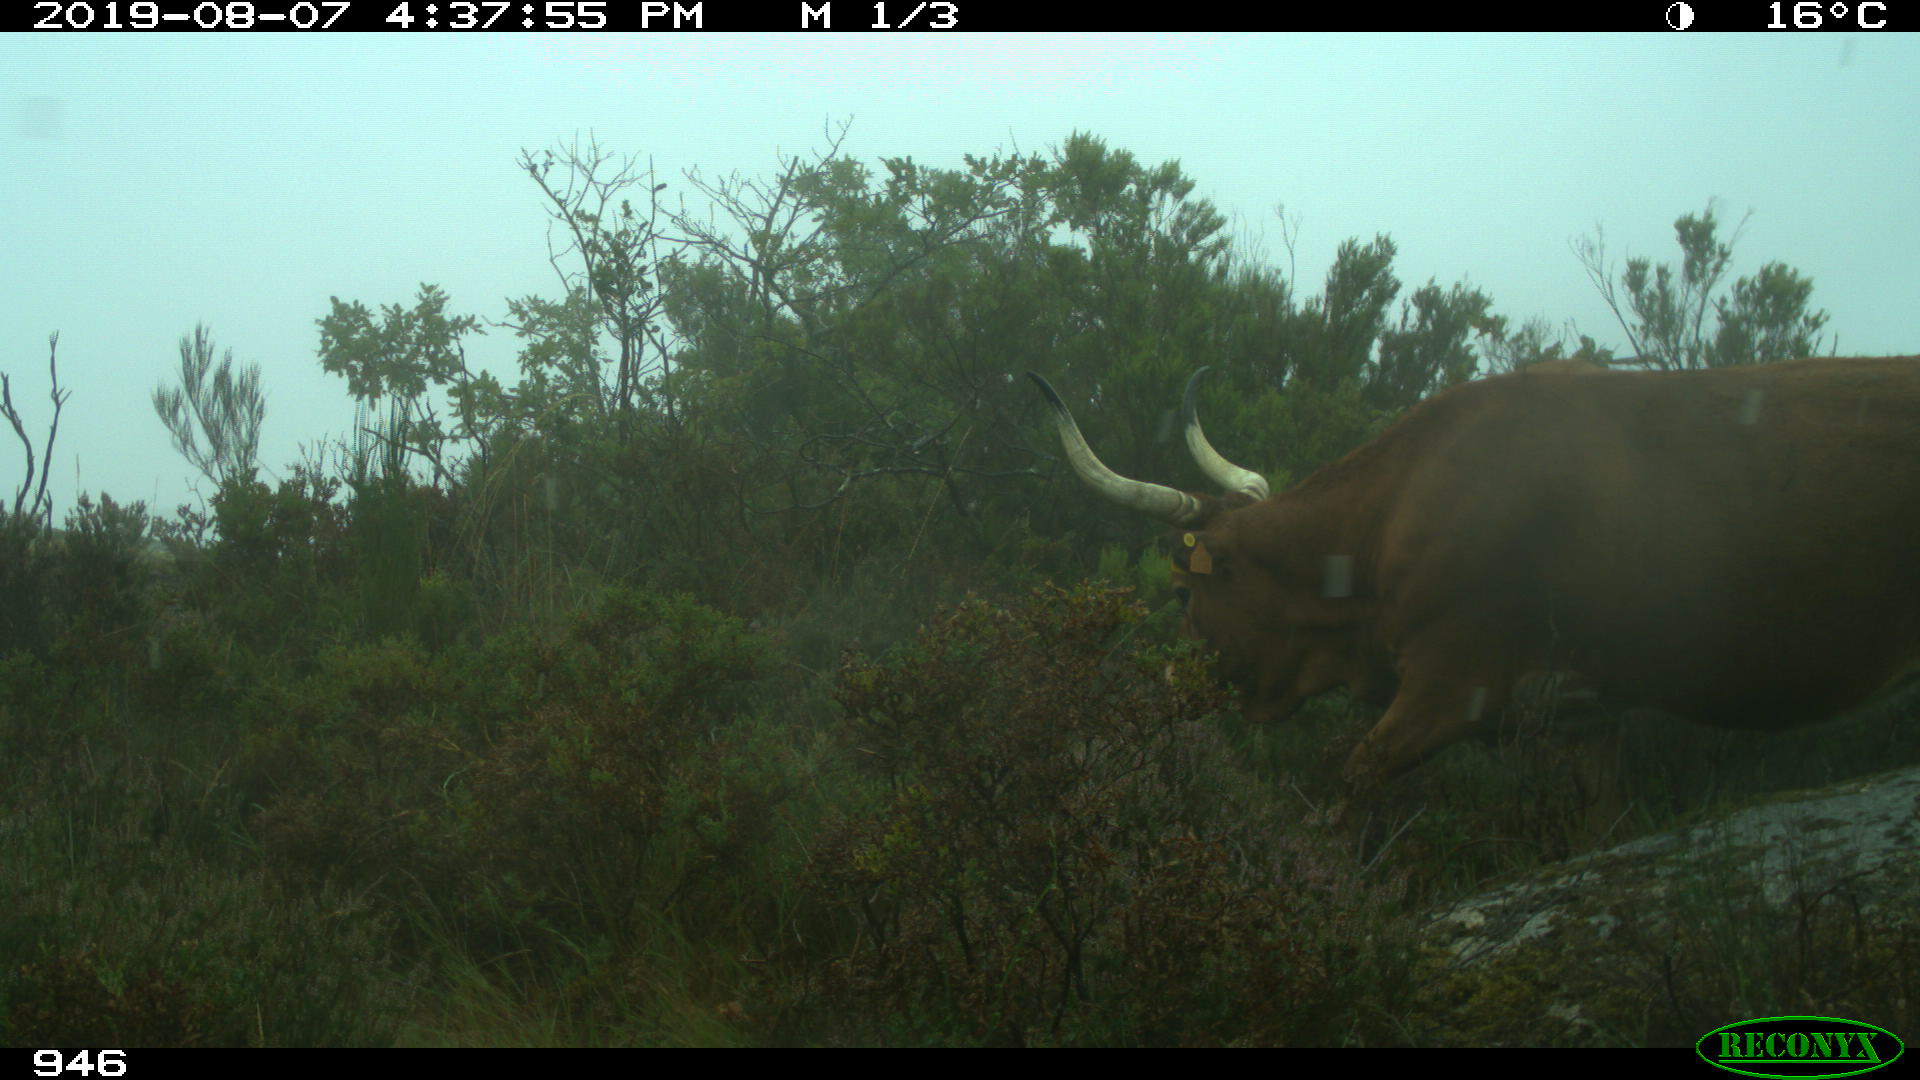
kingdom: Animalia
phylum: Chordata
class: Mammalia
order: Artiodactyla
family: Bovidae
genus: Bos
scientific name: Bos taurus
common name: Domesticated cattle
